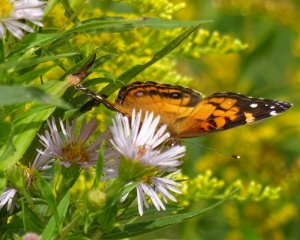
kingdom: Animalia
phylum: Arthropoda
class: Insecta
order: Lepidoptera
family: Nymphalidae
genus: Vanessa
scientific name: Vanessa virginiensis
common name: American Lady
